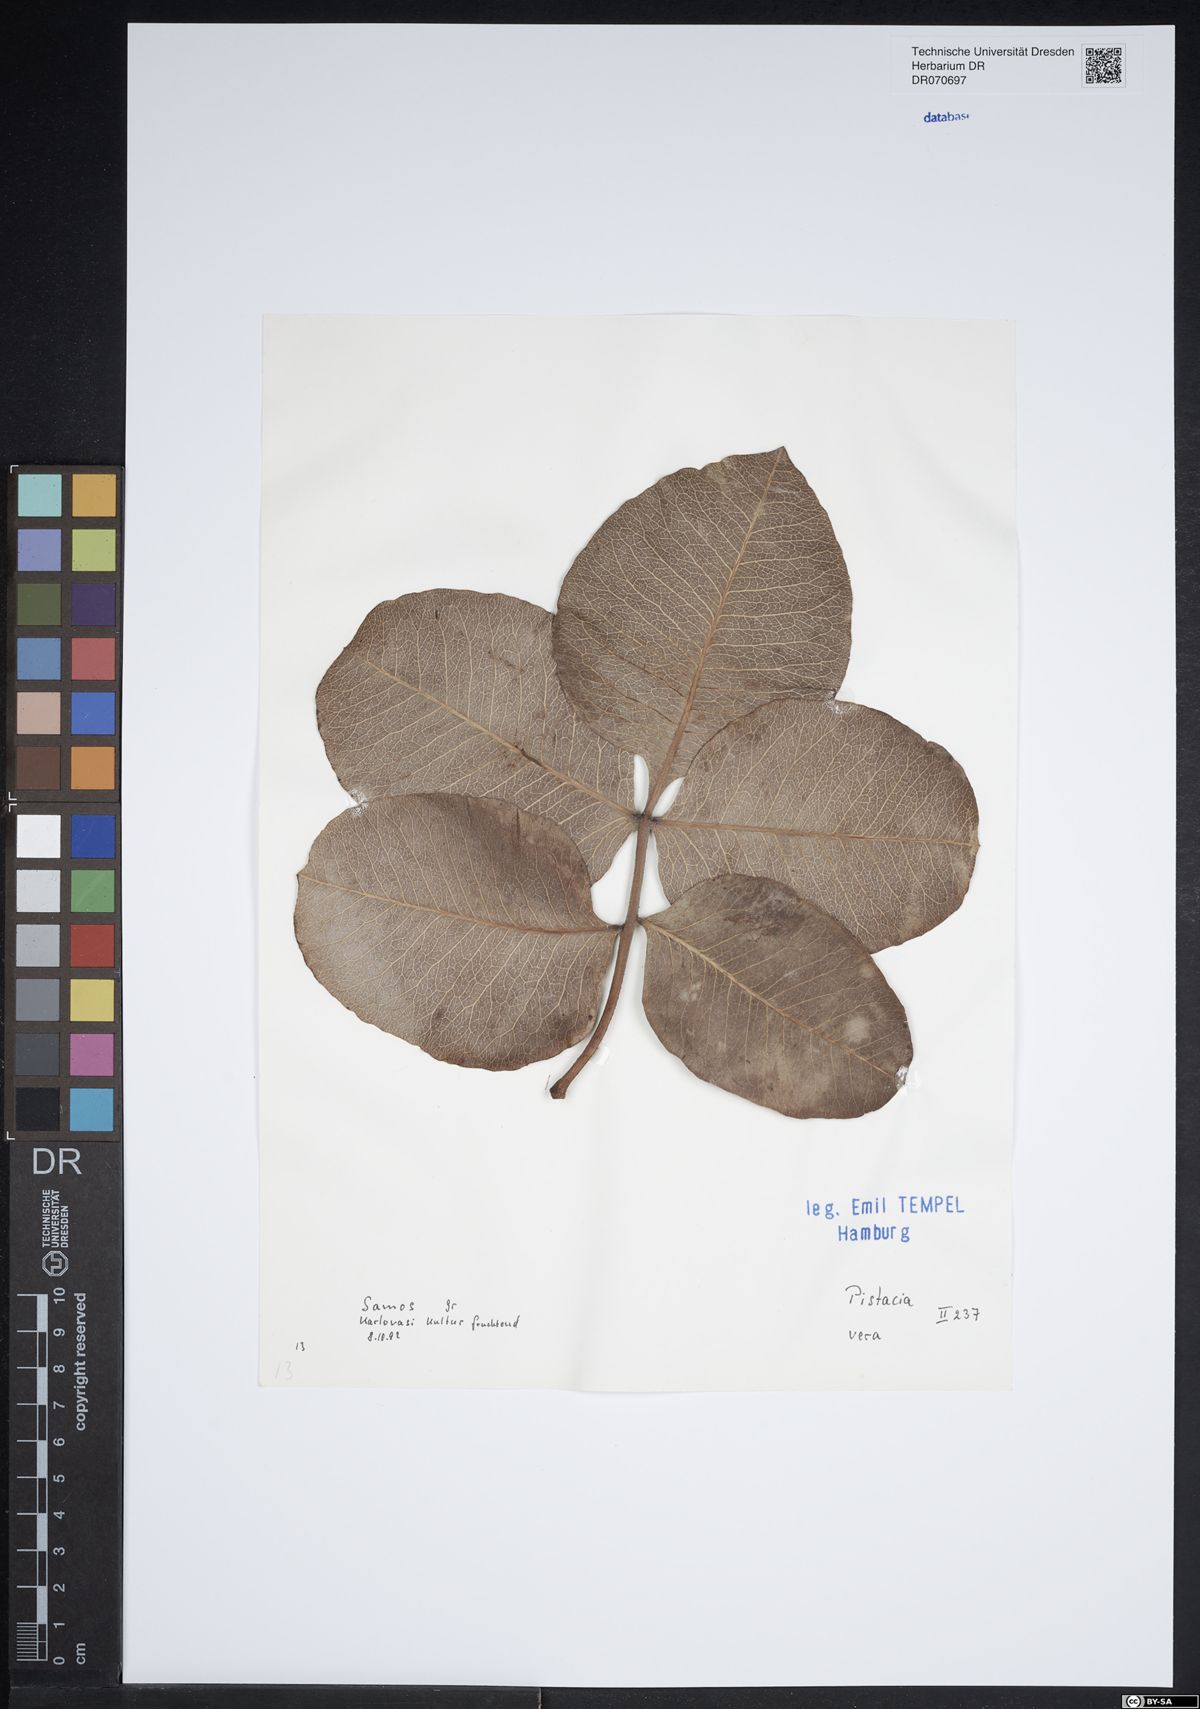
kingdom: Plantae
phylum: Tracheophyta
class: Magnoliopsida
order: Sapindales
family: Anacardiaceae
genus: Pistacia
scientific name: Pistacia vera
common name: Pistachio
